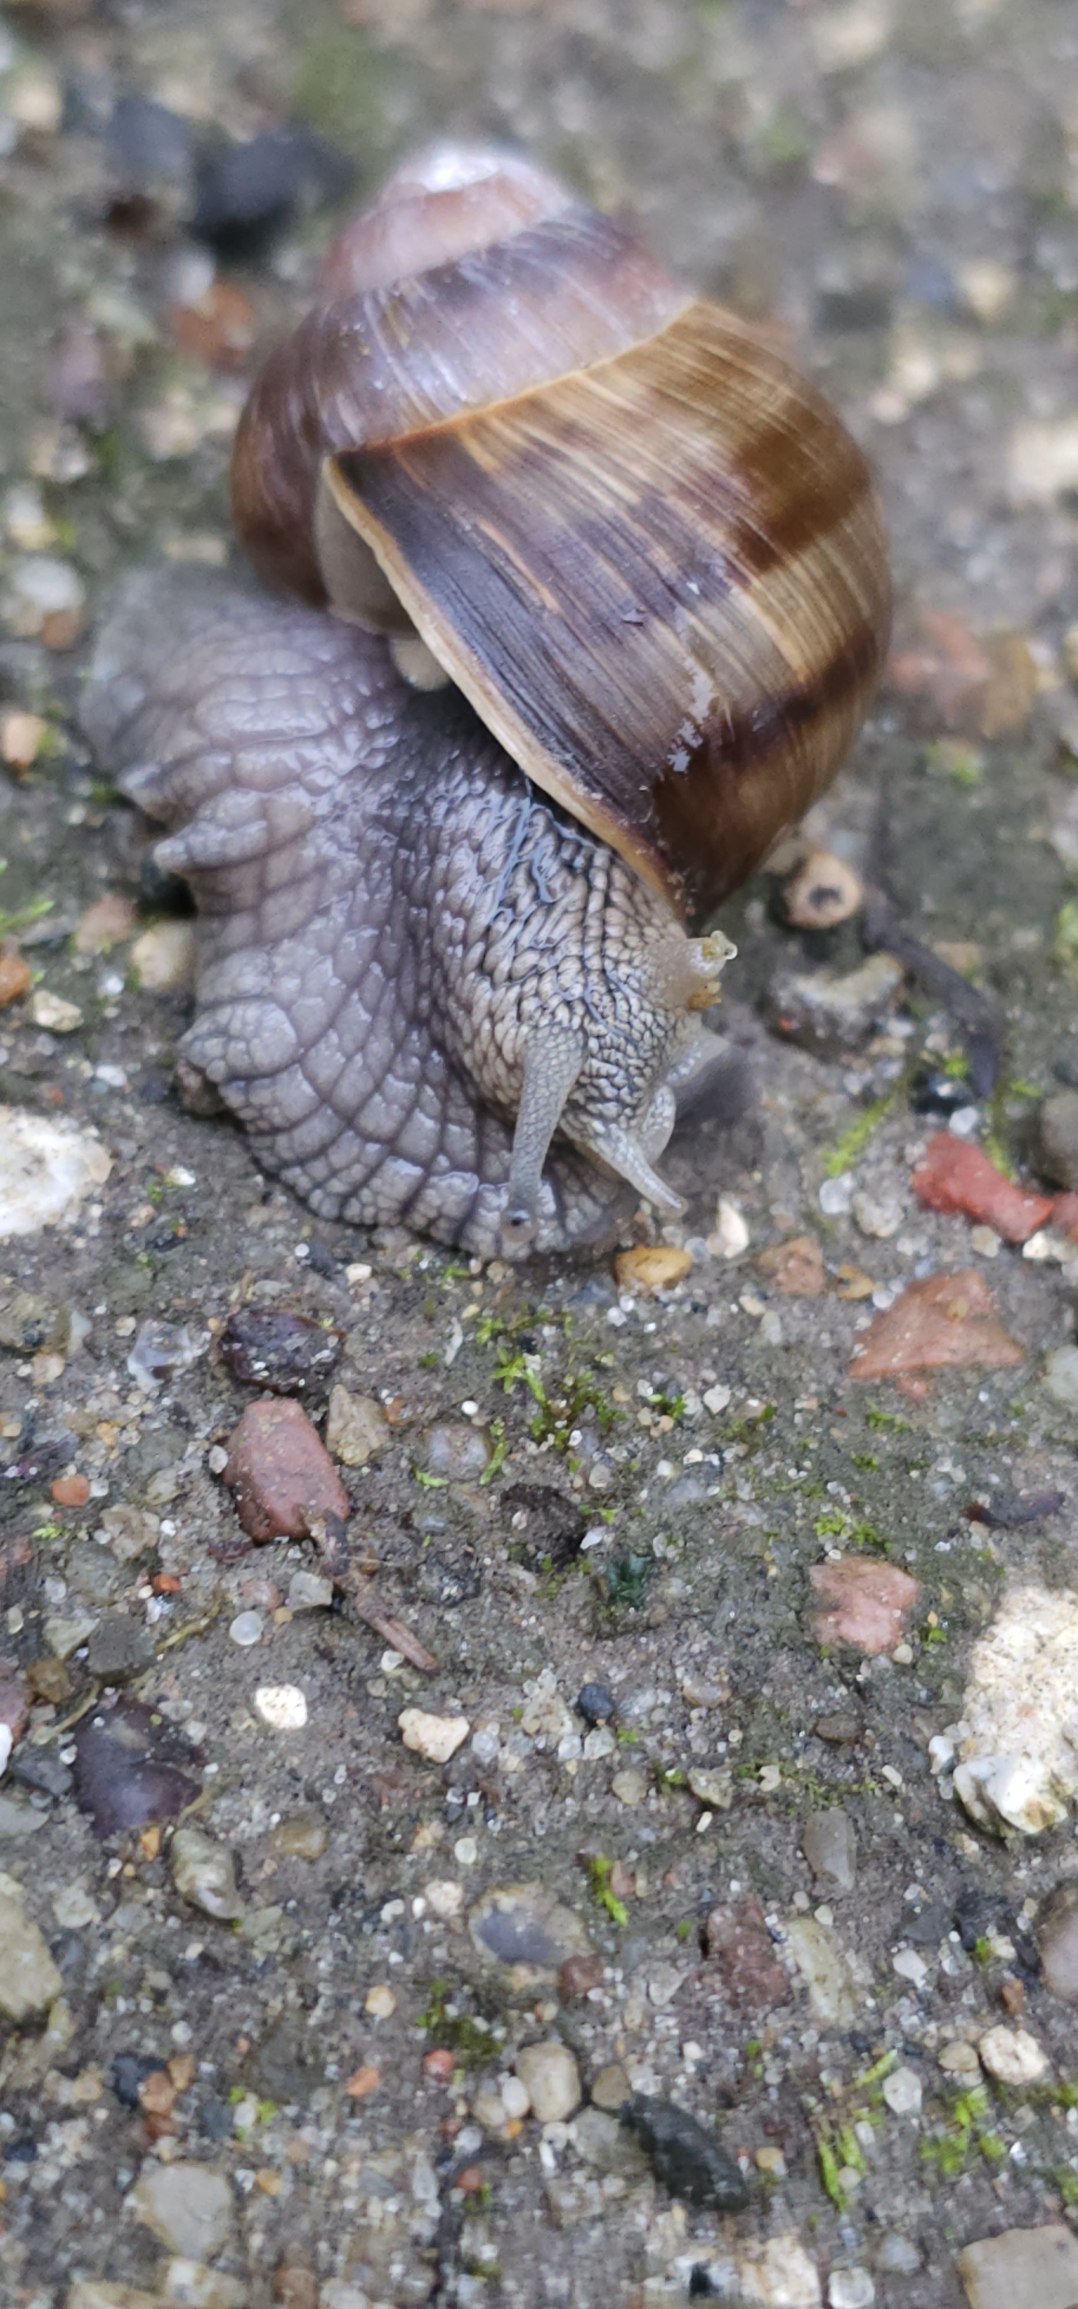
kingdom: Animalia
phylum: Mollusca
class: Gastropoda
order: Stylommatophora
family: Helicidae
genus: Helix
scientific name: Helix pomatia
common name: Vinbjergsnegl
